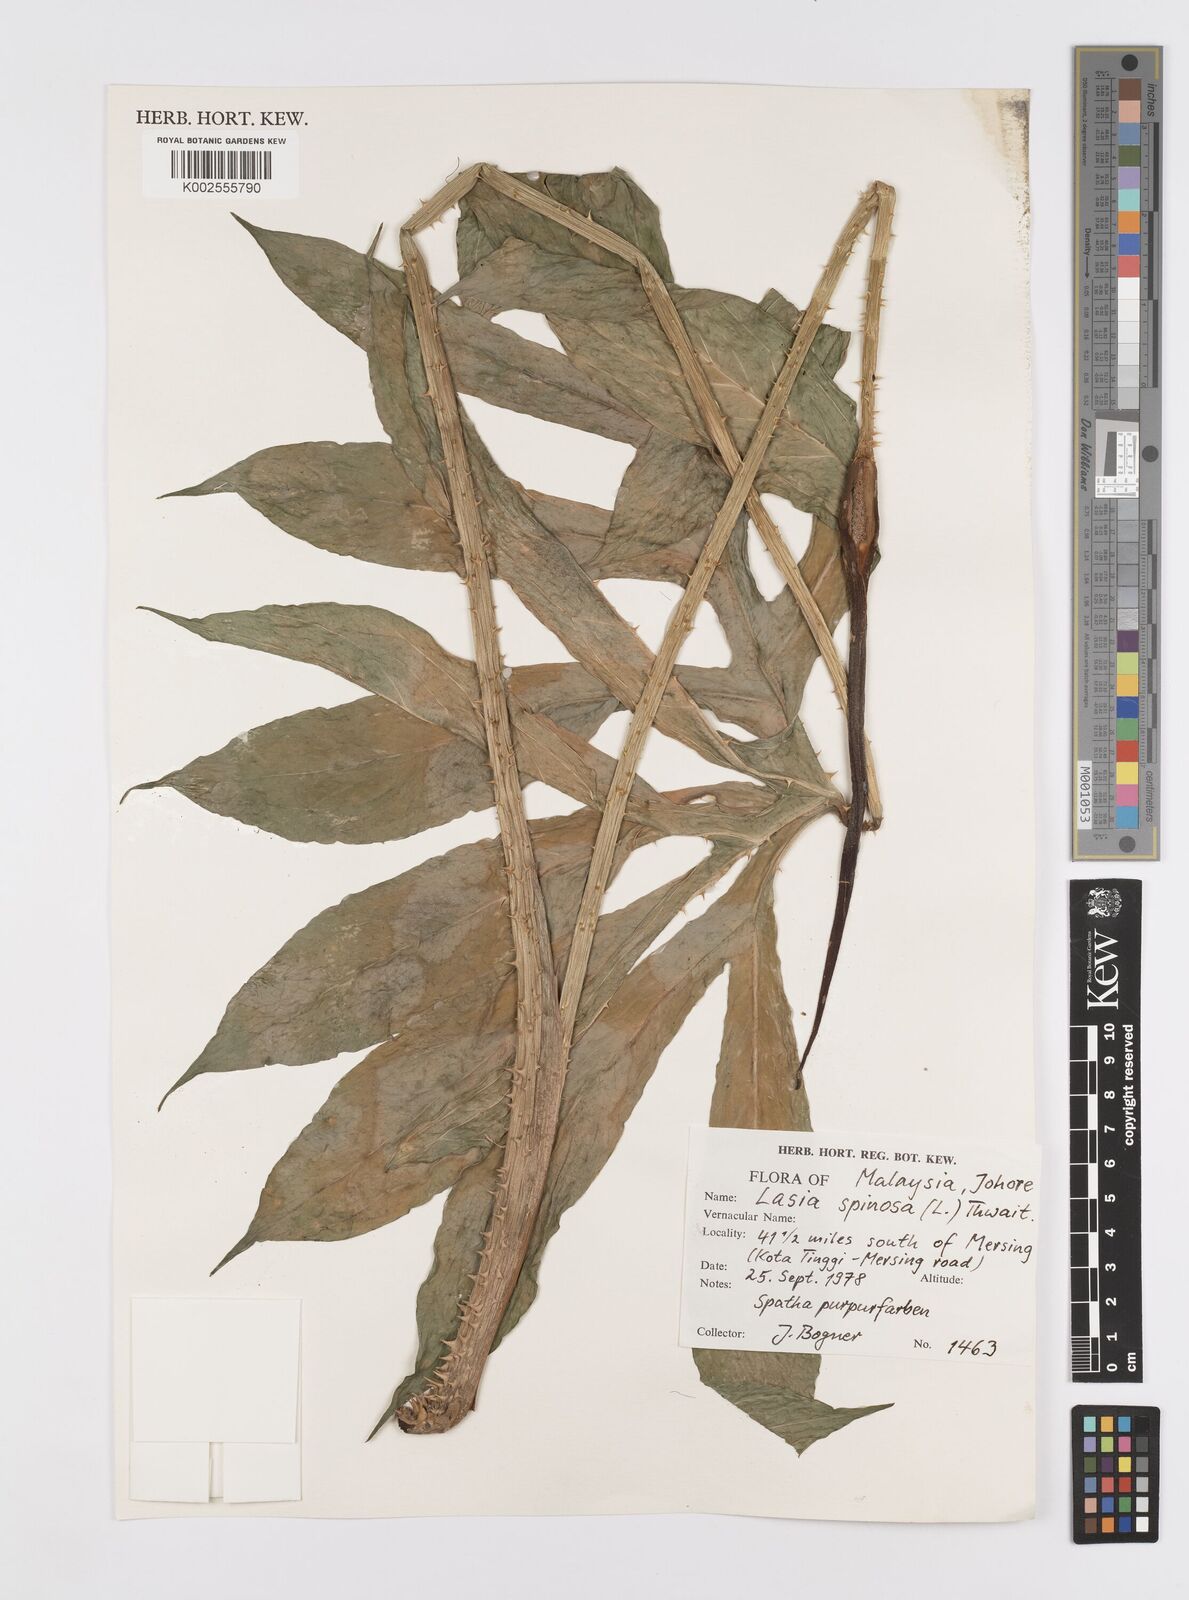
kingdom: Plantae
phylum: Tracheophyta
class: Liliopsida
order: Alismatales
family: Araceae
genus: Lasia
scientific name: Lasia spinosa
